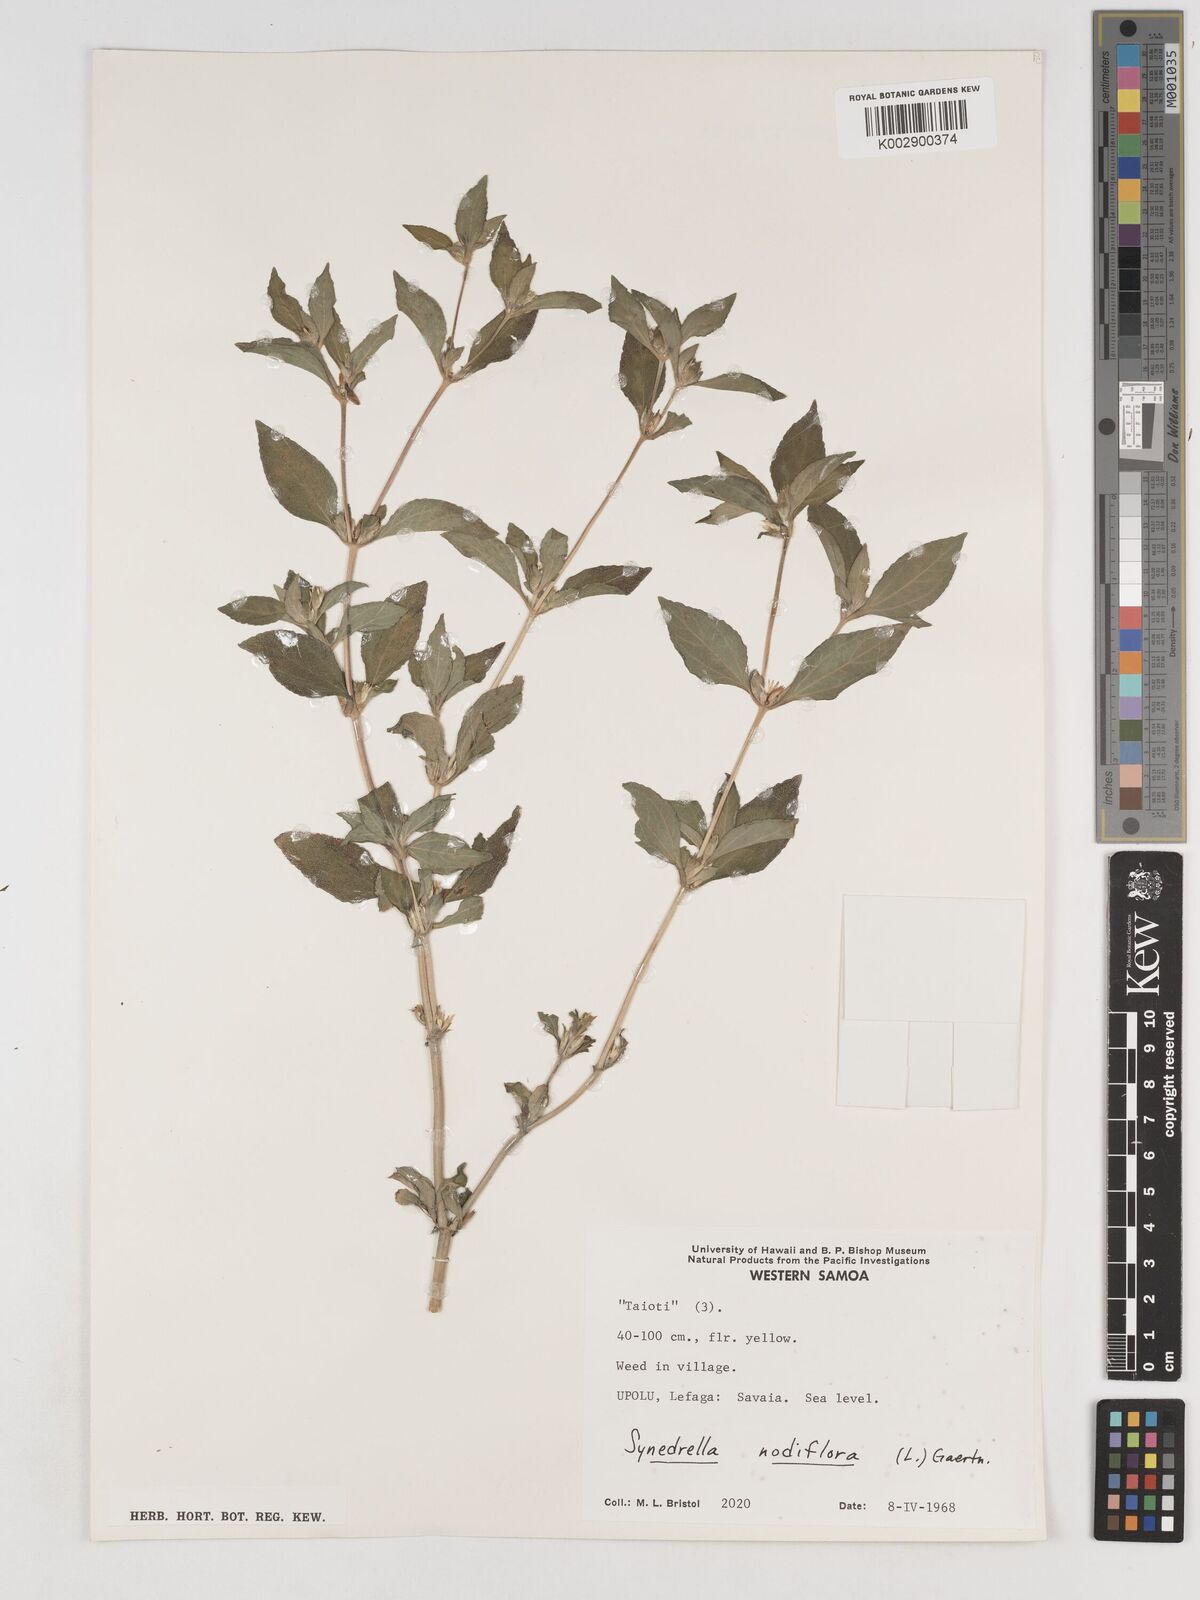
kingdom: Plantae
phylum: Tracheophyta
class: Magnoliopsida
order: Asterales
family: Asteraceae
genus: Synedrella
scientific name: Synedrella nodiflora
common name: Nodeweed
